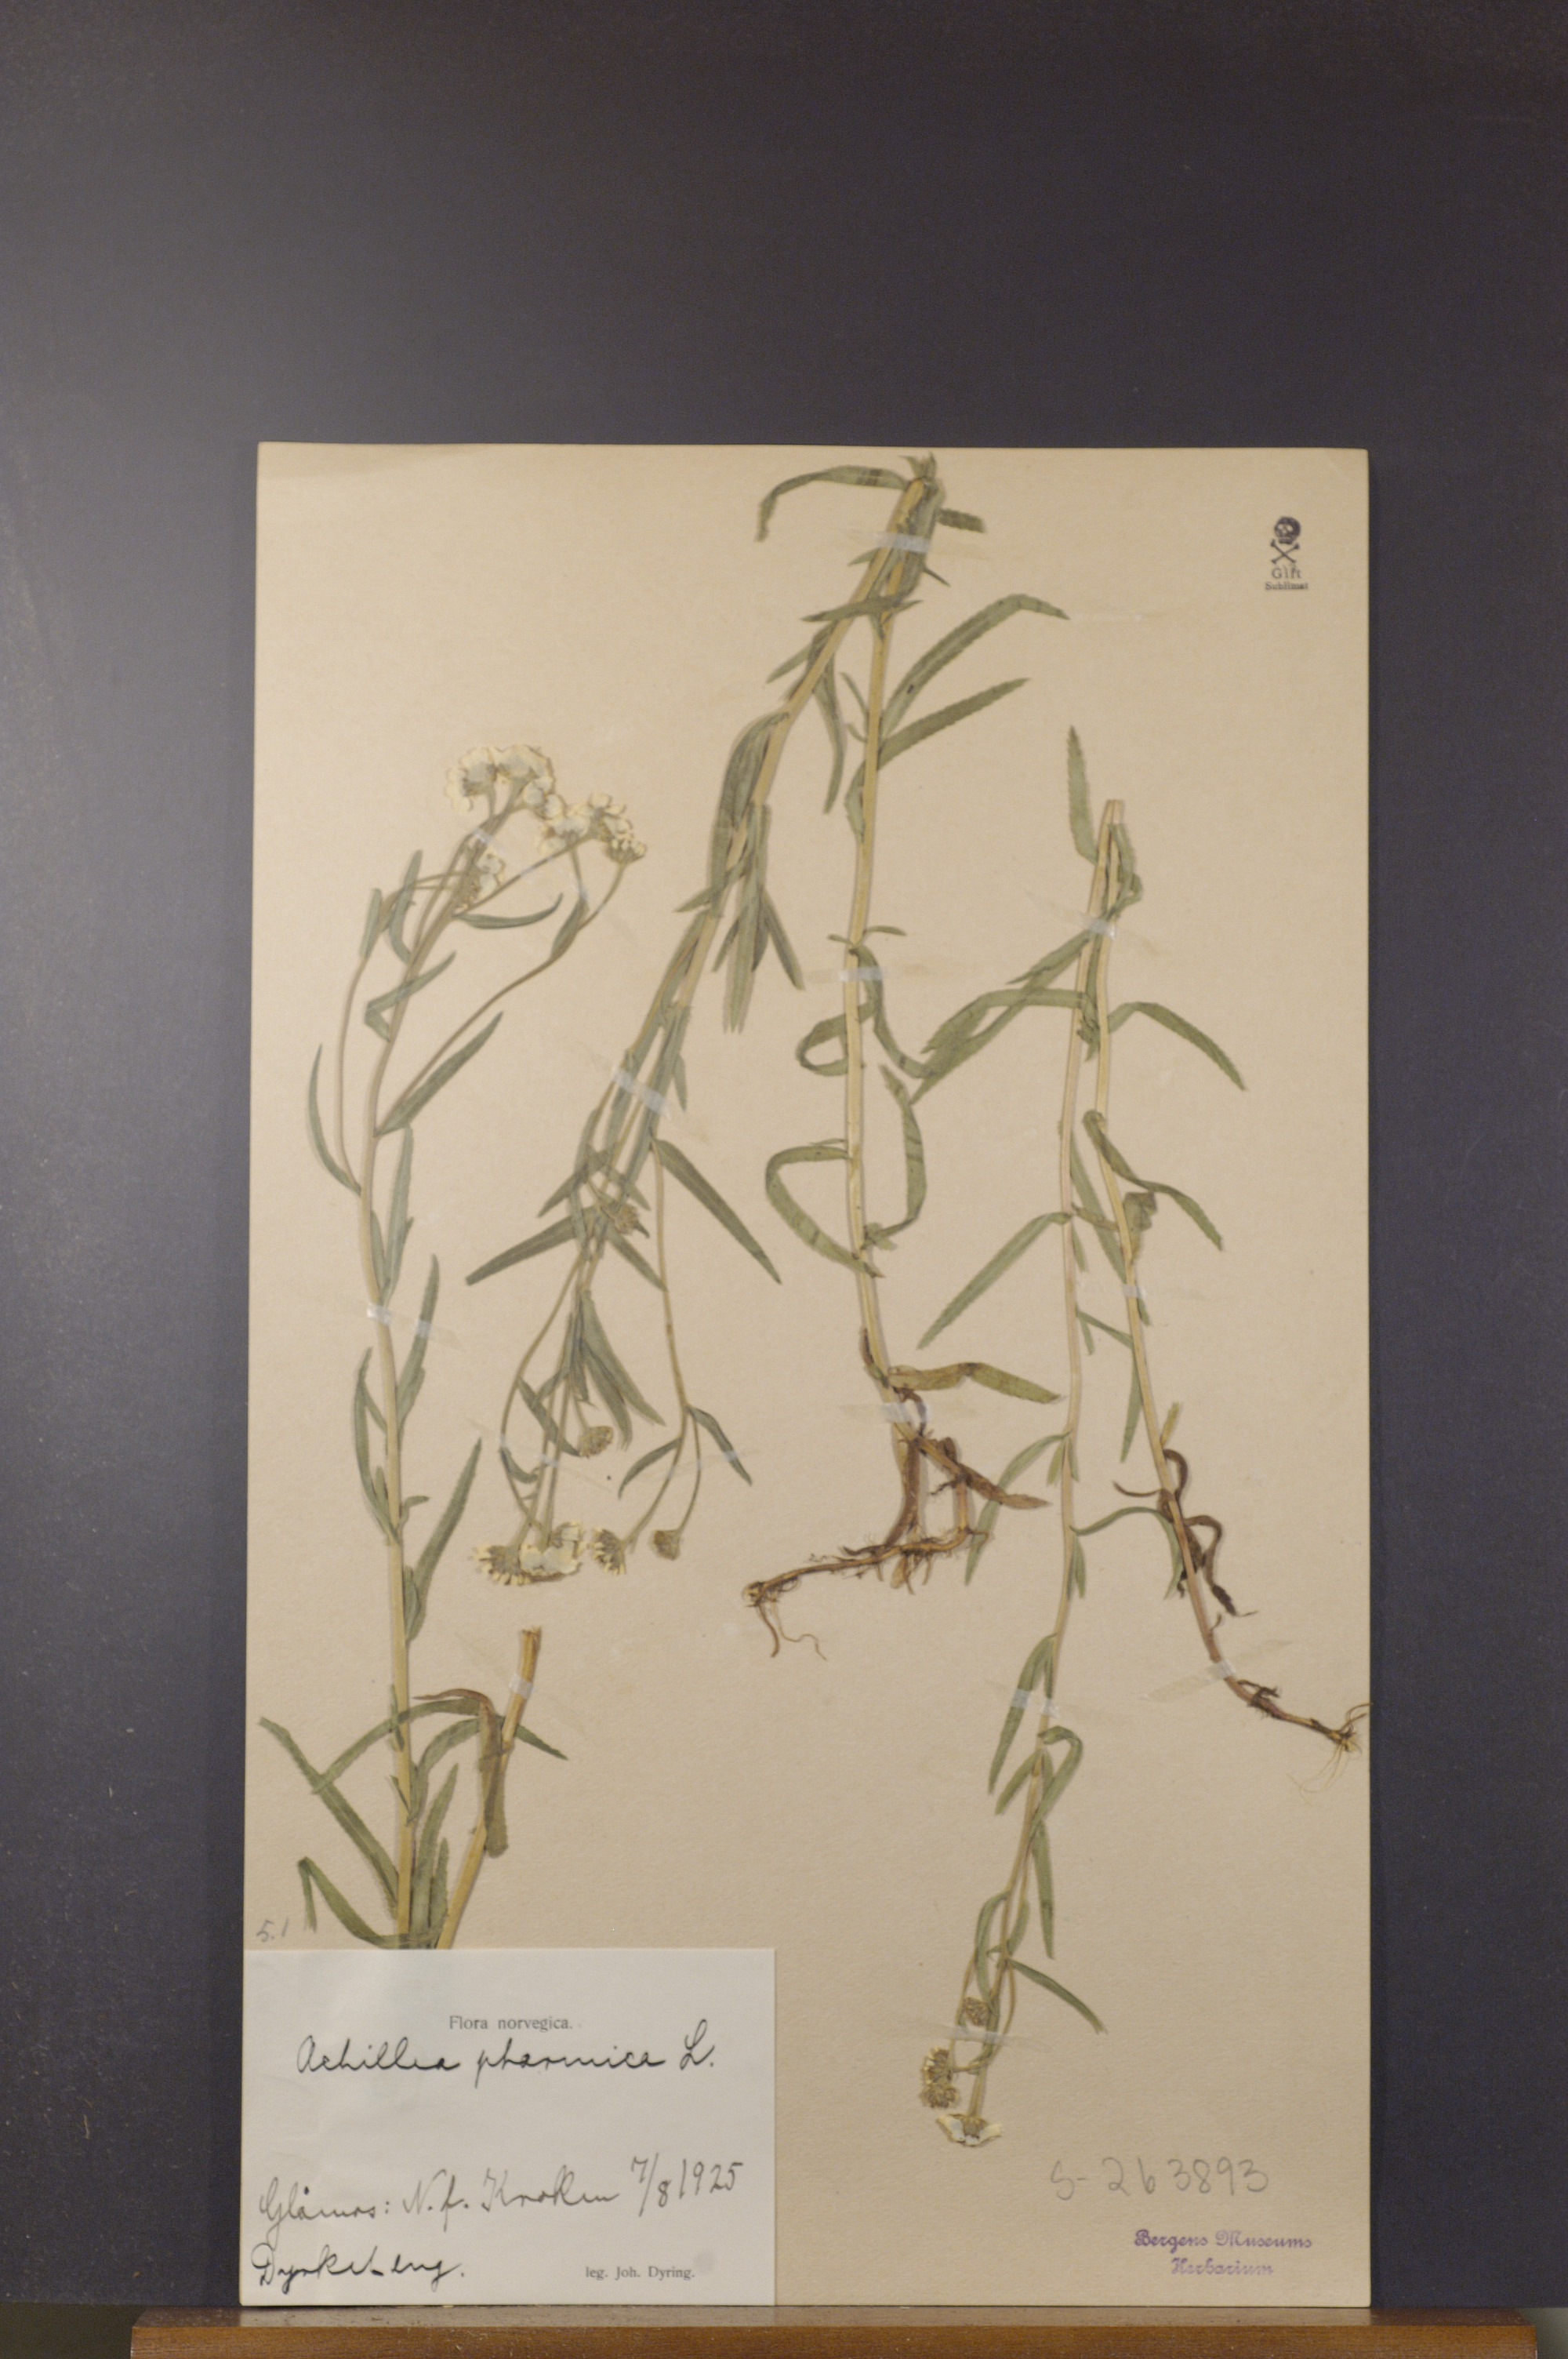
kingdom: Plantae
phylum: Tracheophyta
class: Magnoliopsida
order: Asterales
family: Asteraceae
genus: Achillea
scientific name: Achillea ptarmica
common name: Sneezeweed
